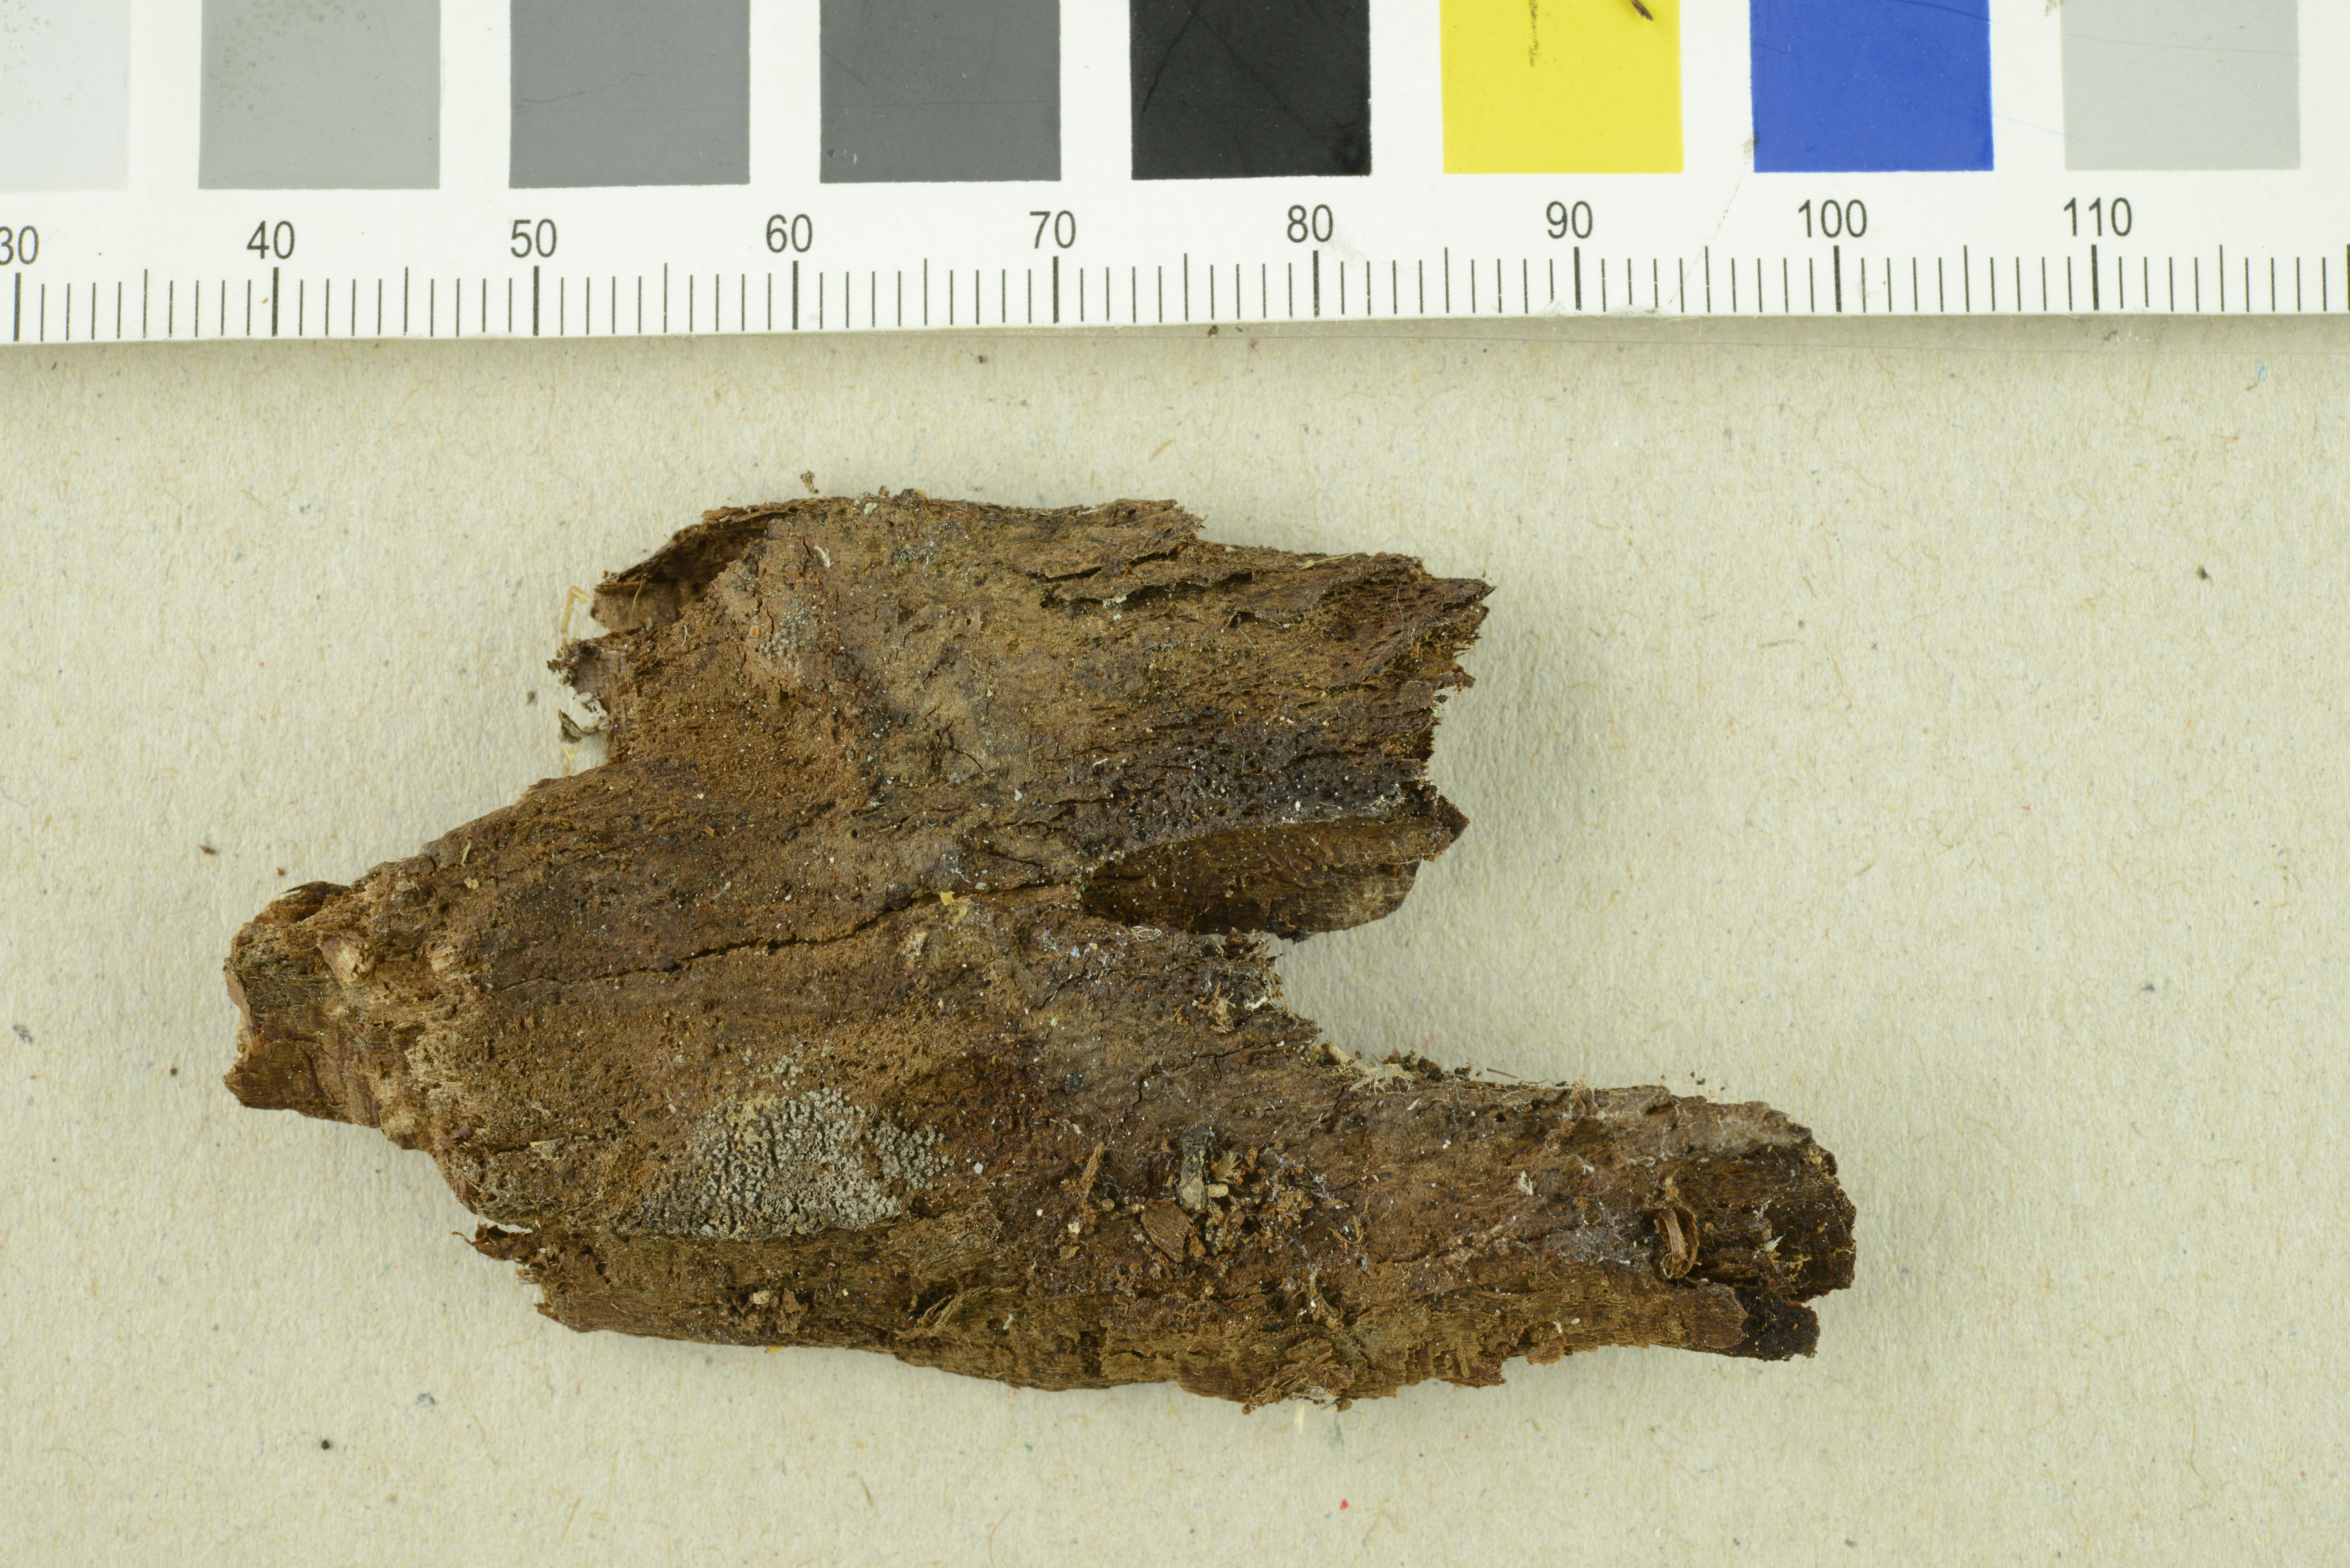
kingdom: Fungi
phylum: Basidiomycota
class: Agaricomycetes
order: Agaricales
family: Pleurotaceae
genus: Resupinatus
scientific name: Resupinatus poriaeformis
